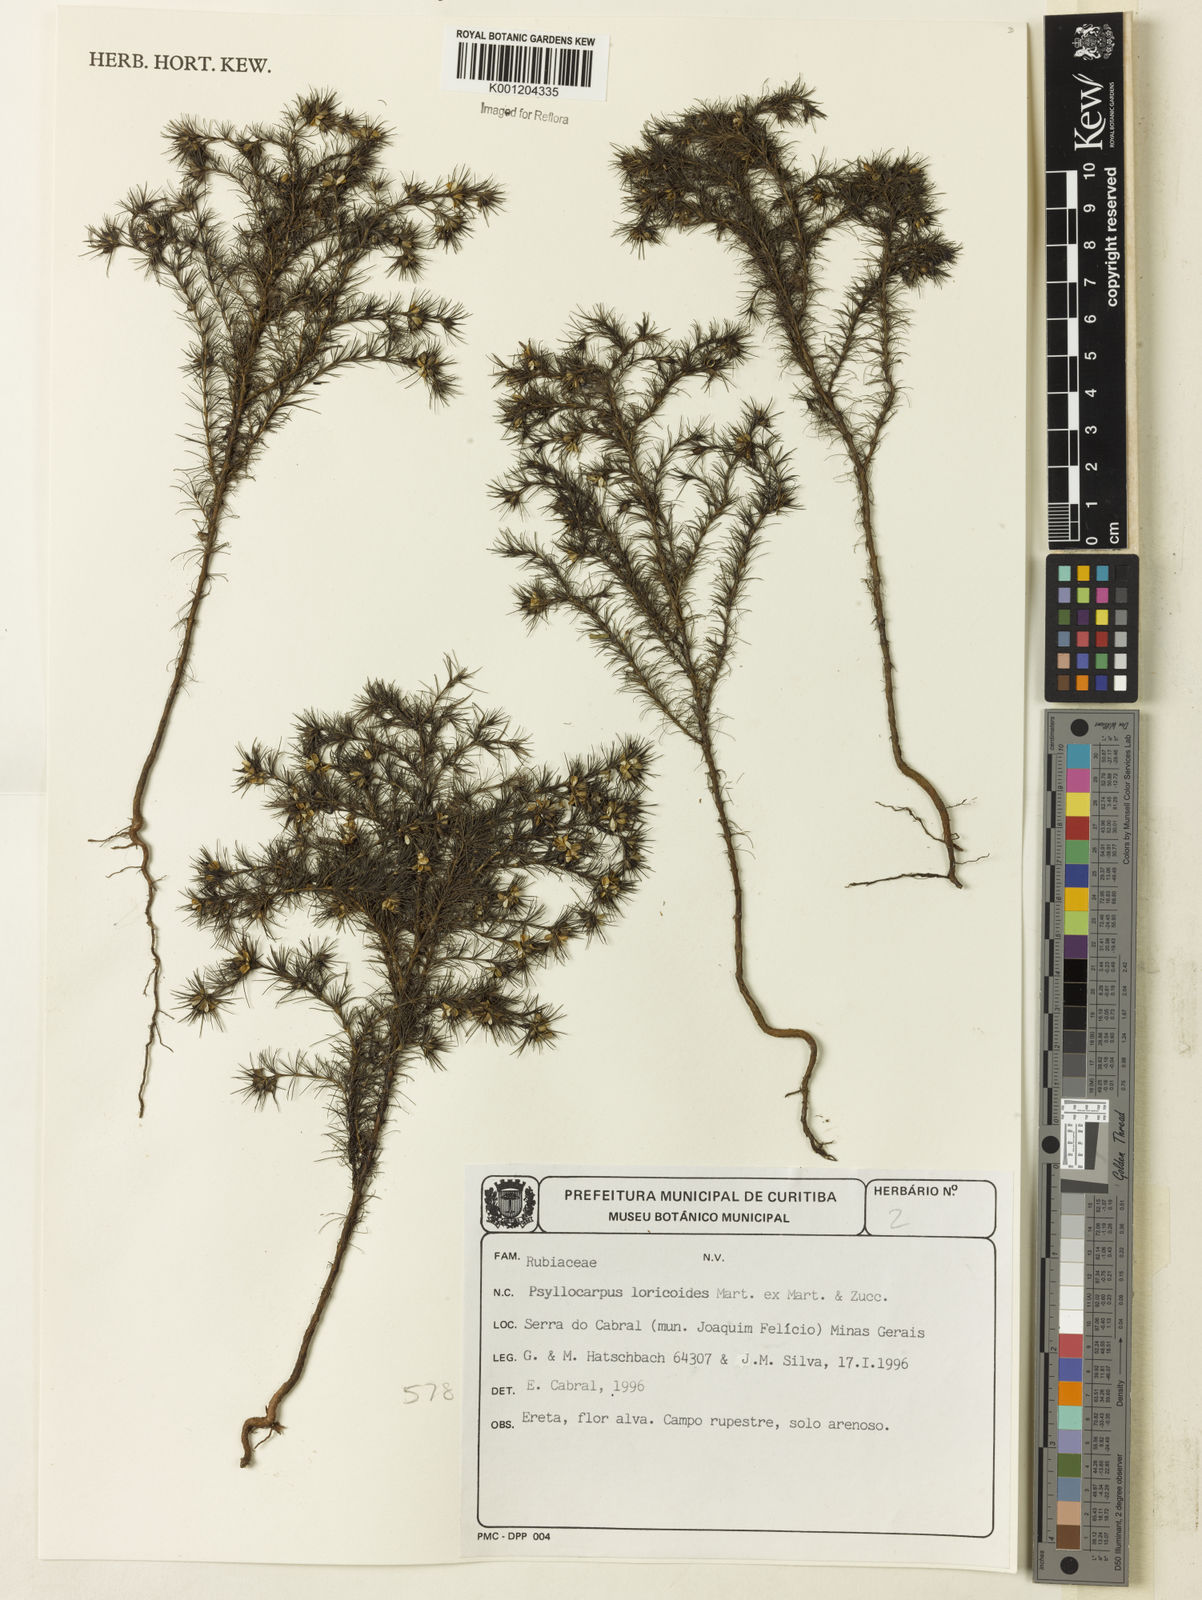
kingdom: Plantae
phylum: Tracheophyta
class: Magnoliopsida
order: Gentianales
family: Rubiaceae
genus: Psyllocarpus
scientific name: Psyllocarpus laricoides
